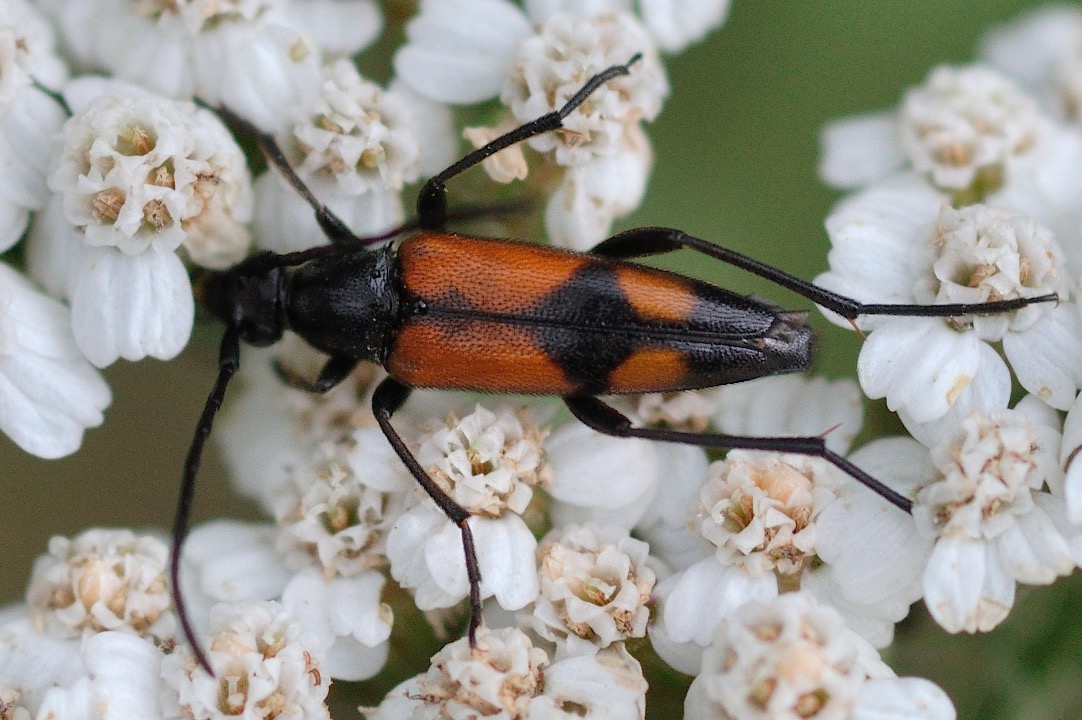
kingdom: Animalia
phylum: Arthropoda
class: Insecta
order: Coleoptera
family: Cerambycidae
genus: Stenurella
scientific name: Stenurella bifasciata
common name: Tobåndet blomsterbuk
